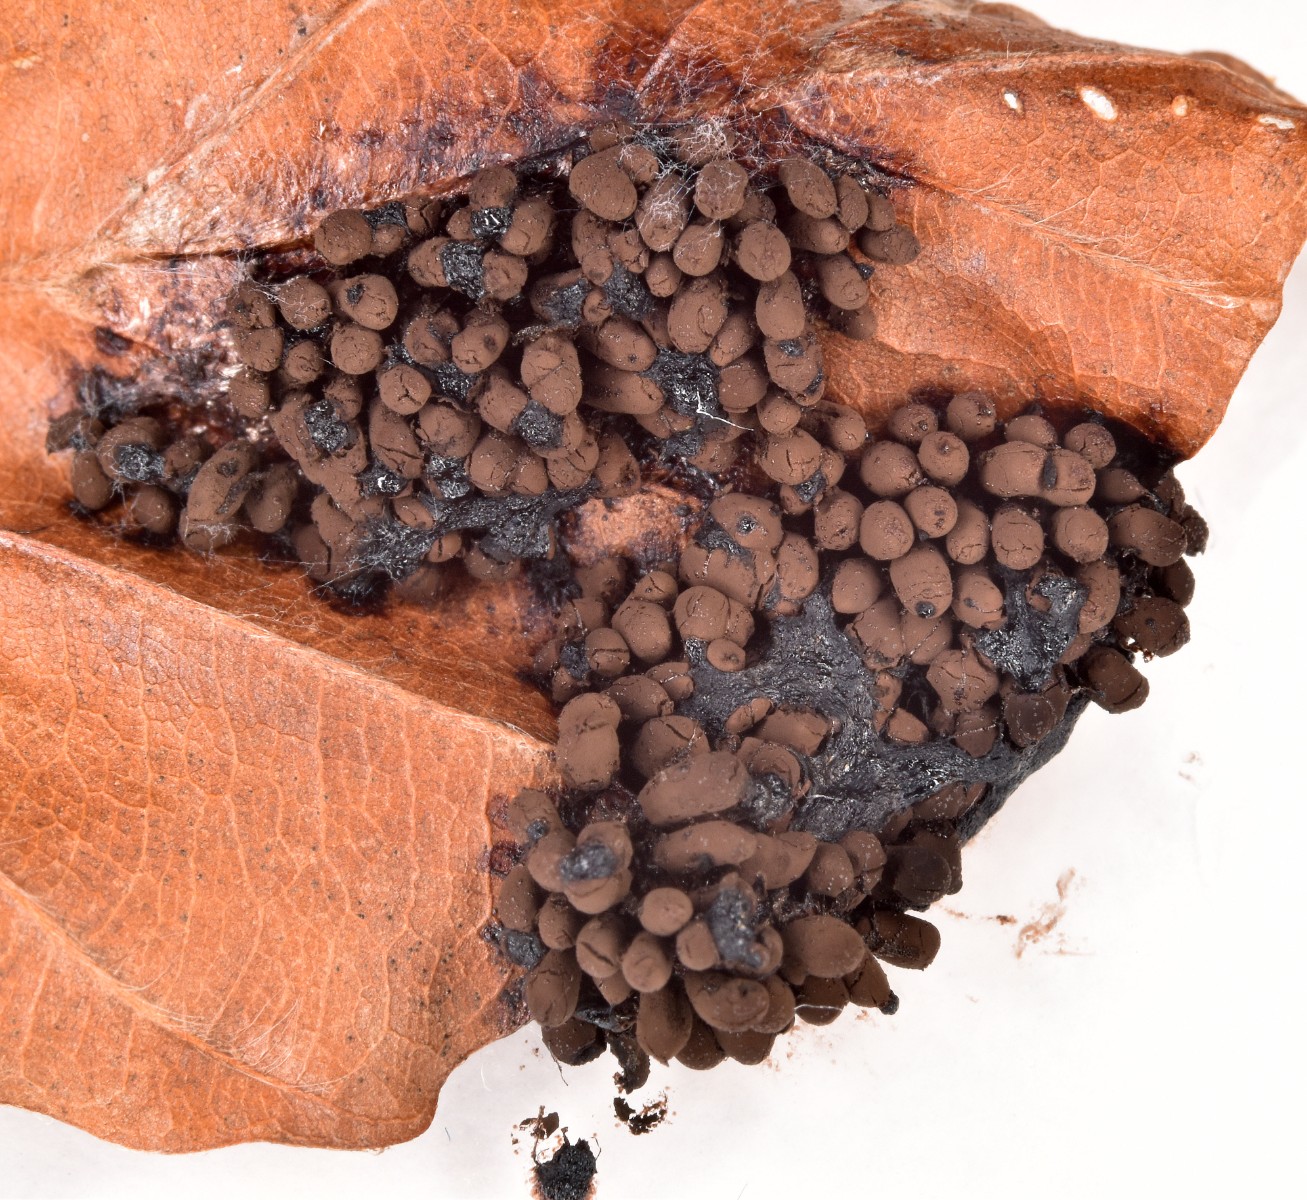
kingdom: Protozoa
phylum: Mycetozoa
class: Myxomycetes
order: Stemonitidales
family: Stemonitidaceae
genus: Comatricha
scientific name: Comatricha
